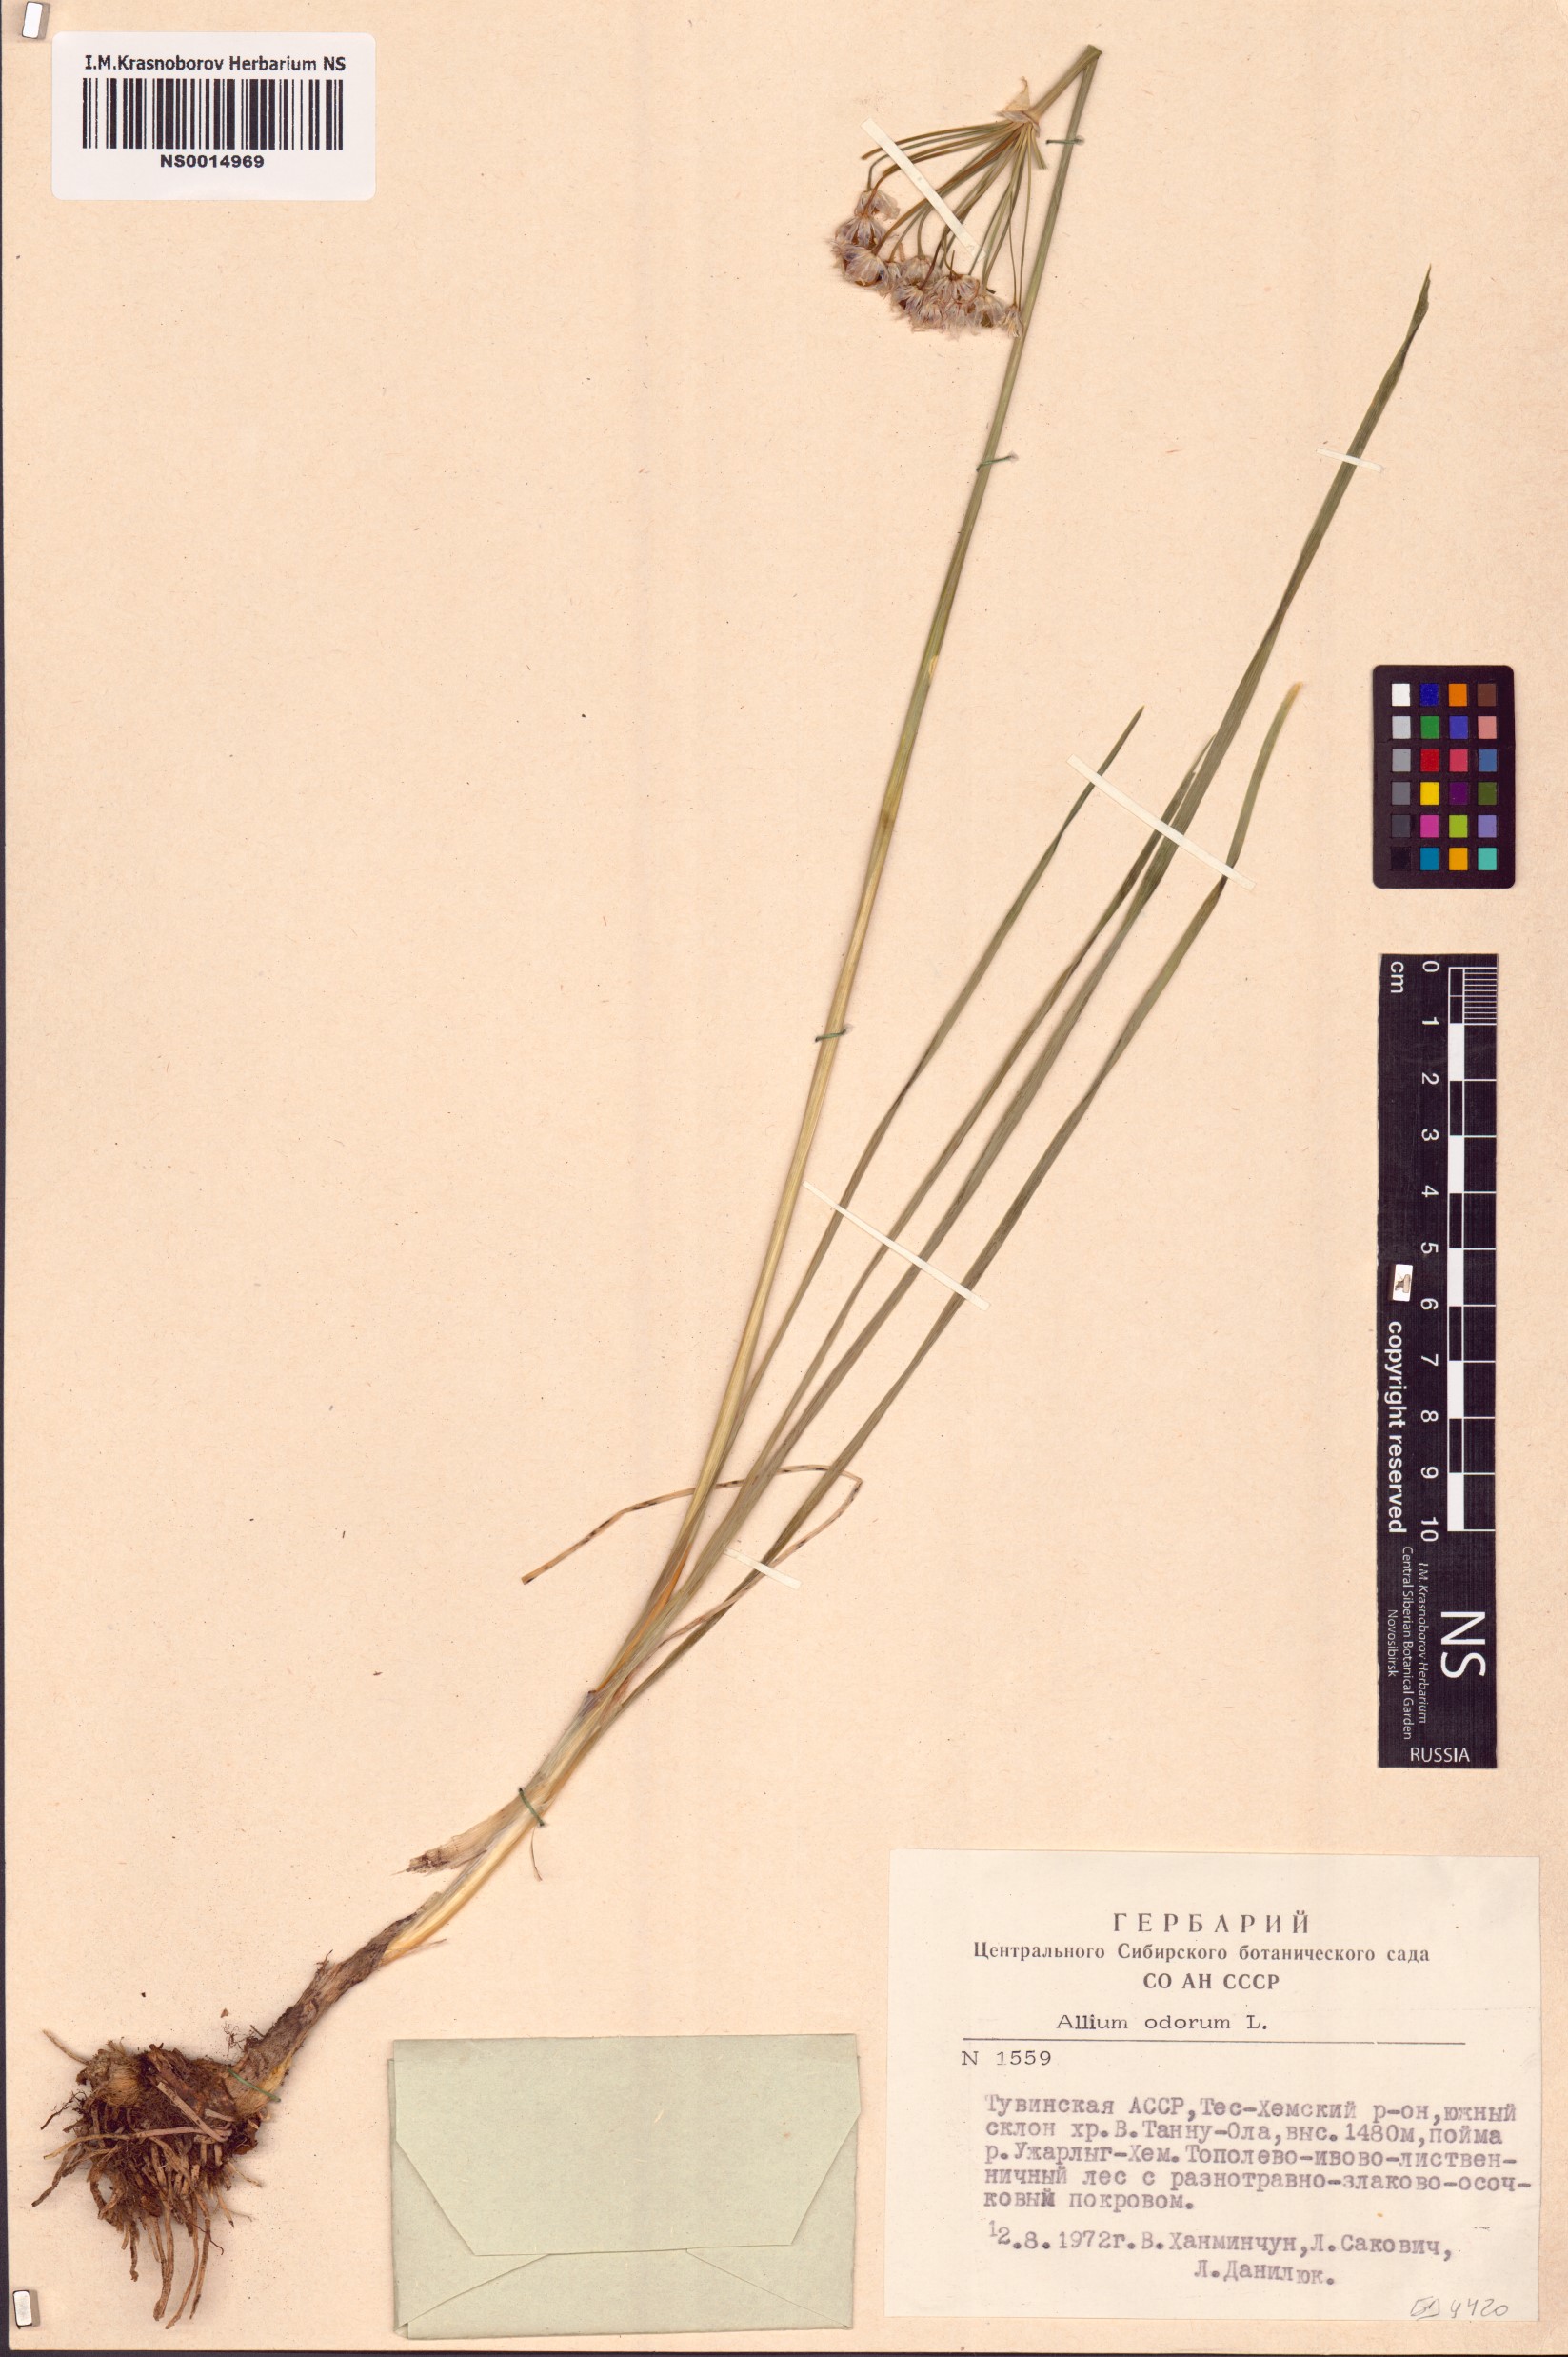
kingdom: Plantae
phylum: Tracheophyta
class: Liliopsida
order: Asparagales
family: Amaryllidaceae
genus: Allium
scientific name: Allium ramosum
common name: Fragrant garlic
